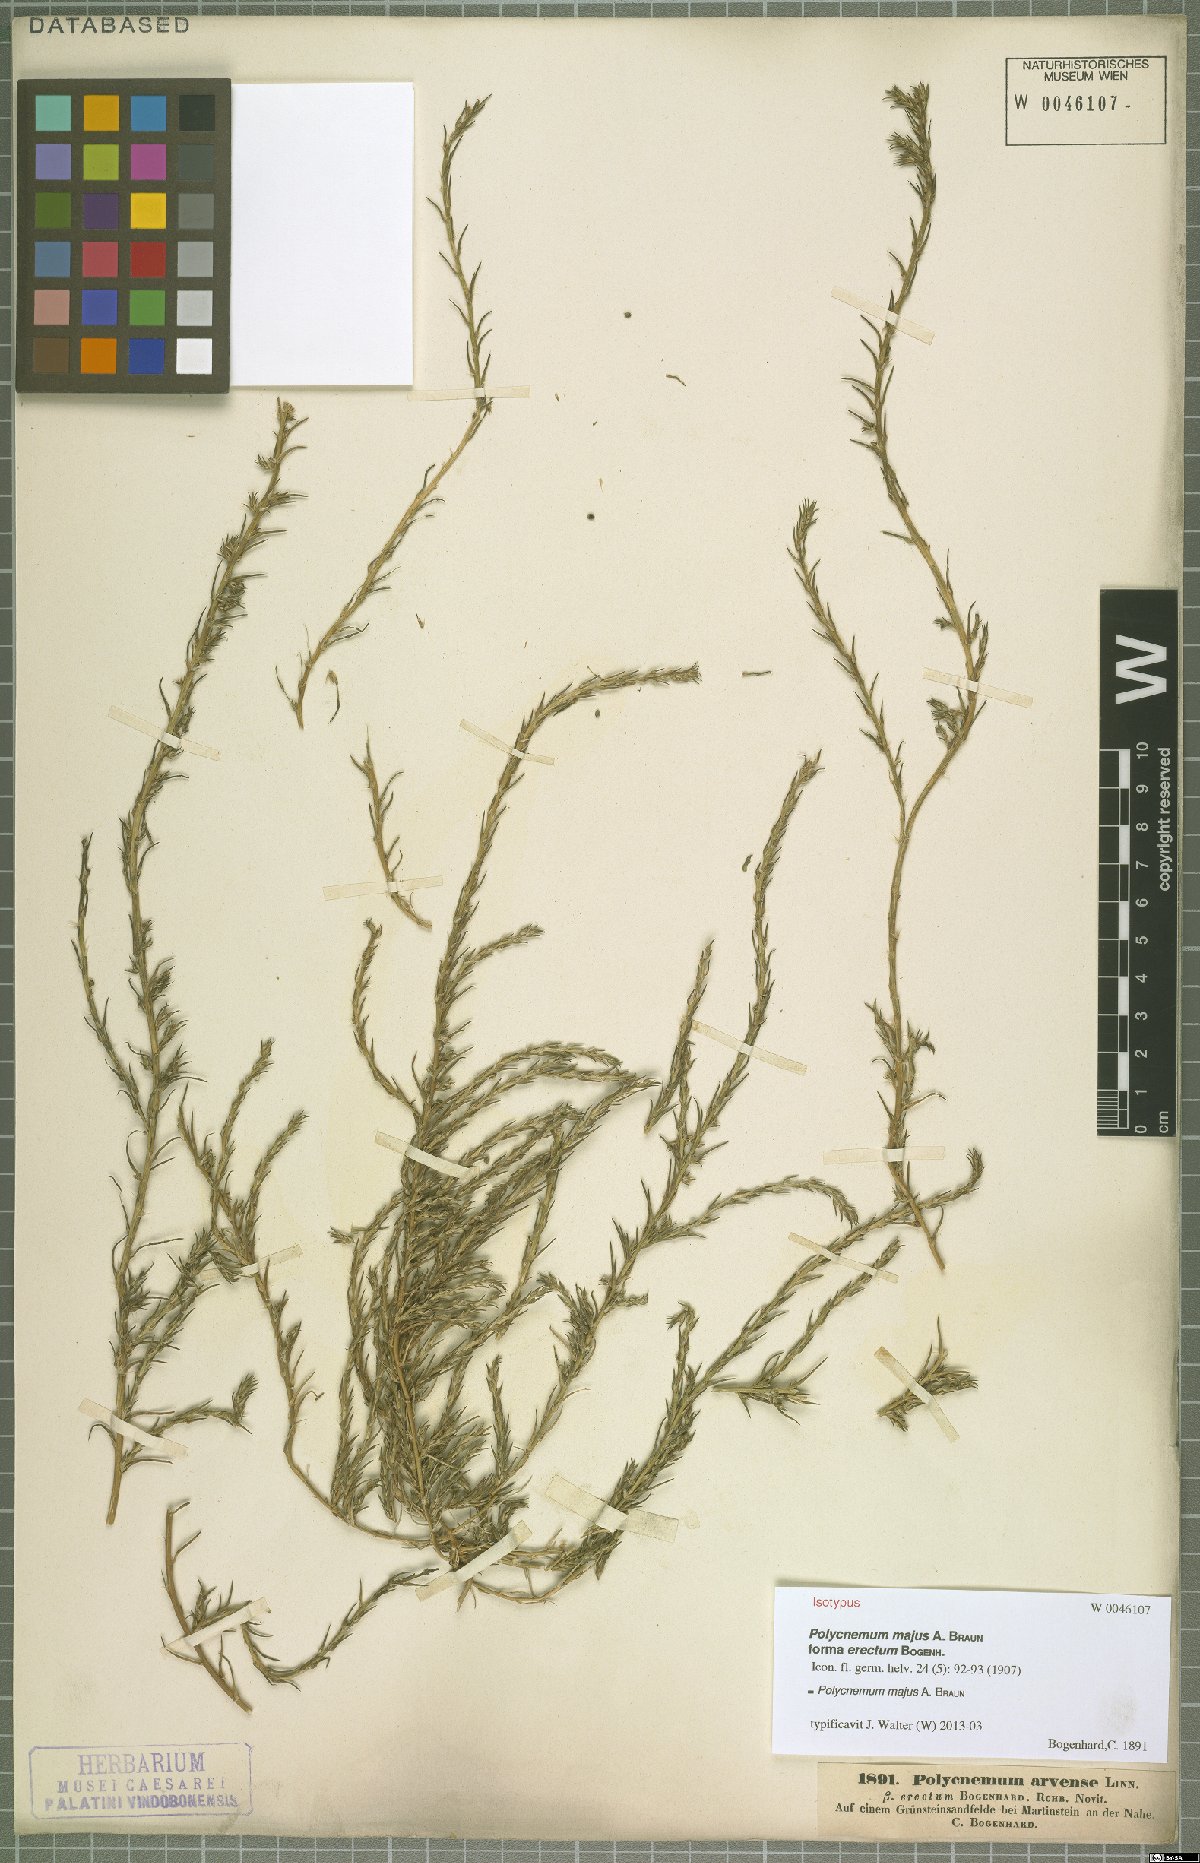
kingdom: Plantae
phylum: Tracheophyta
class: Magnoliopsida
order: Caryophyllales
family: Amaranthaceae
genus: Polycnemum
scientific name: Polycnemum majus
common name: Giant needleleaf
